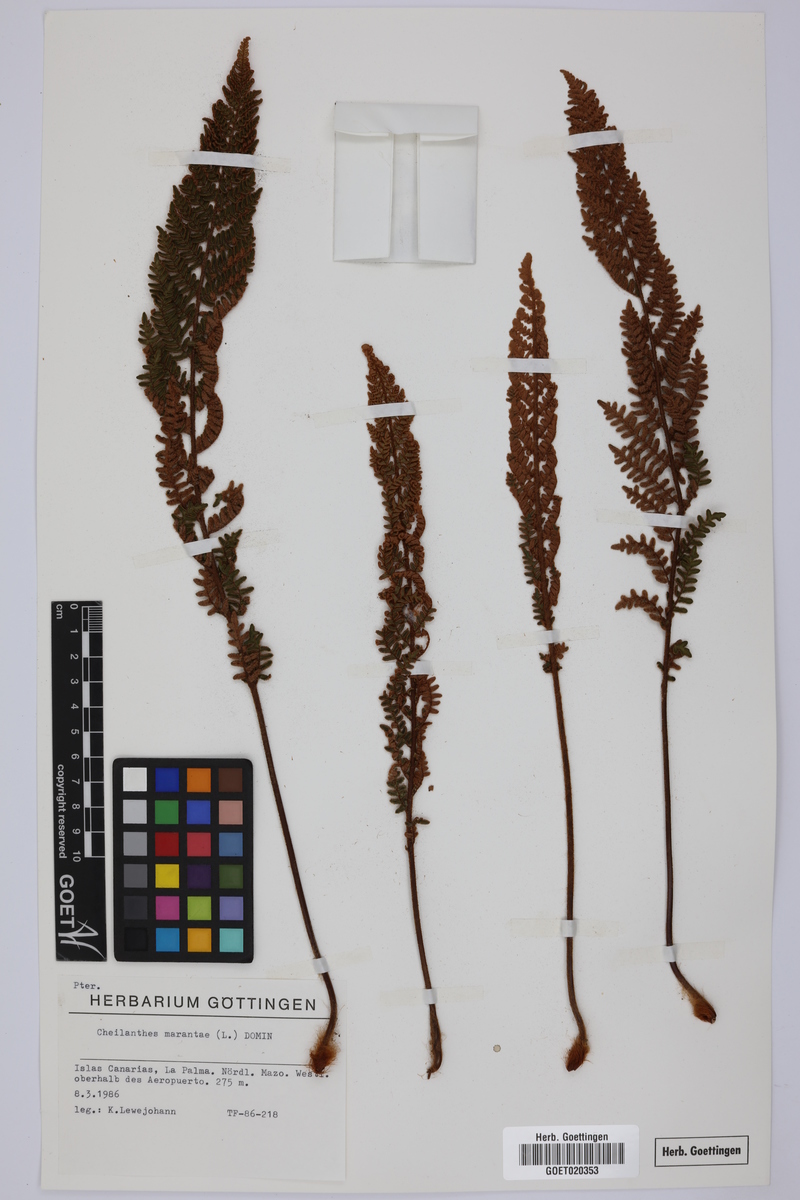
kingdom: Plantae
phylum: Tracheophyta
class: Polypodiopsida
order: Polypodiales
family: Pteridaceae
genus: Paragymnopteris
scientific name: Paragymnopteris marantae
